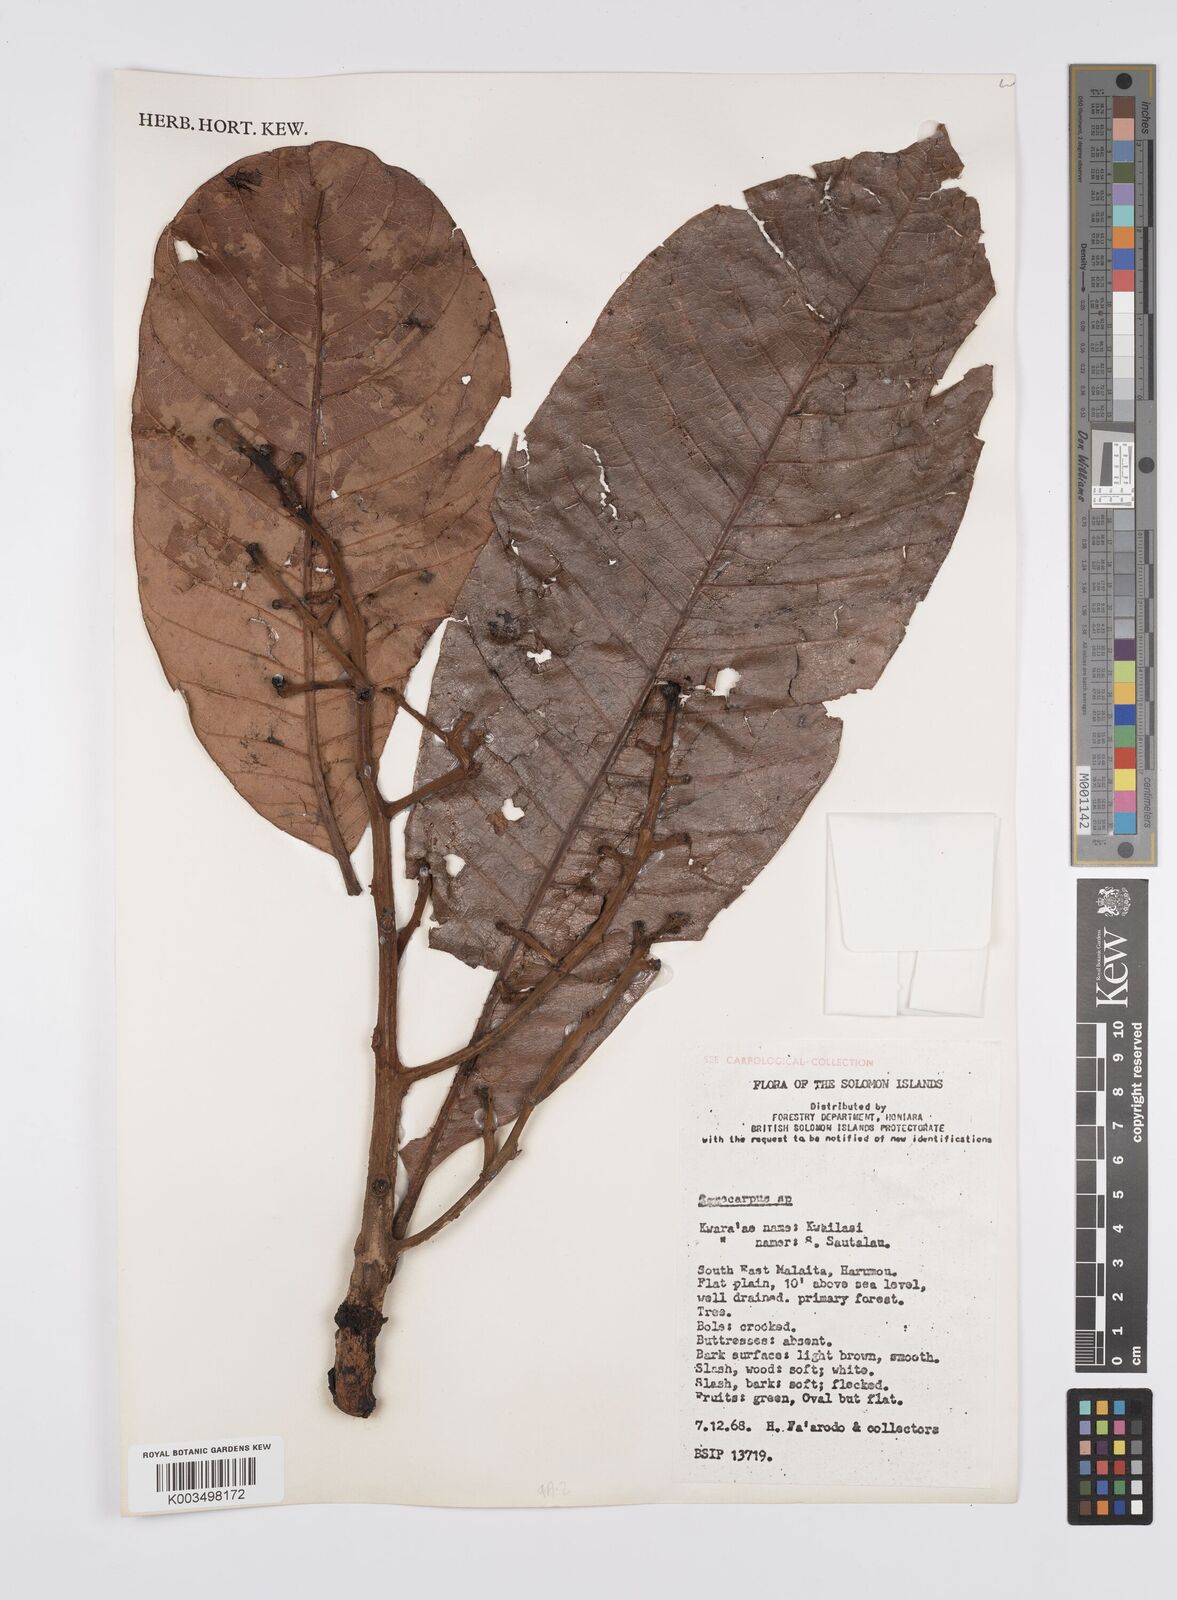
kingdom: Plantae
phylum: Tracheophyta
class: Magnoliopsida
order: Sapindales
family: Anacardiaceae
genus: Semecarpus
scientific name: Semecarpus
